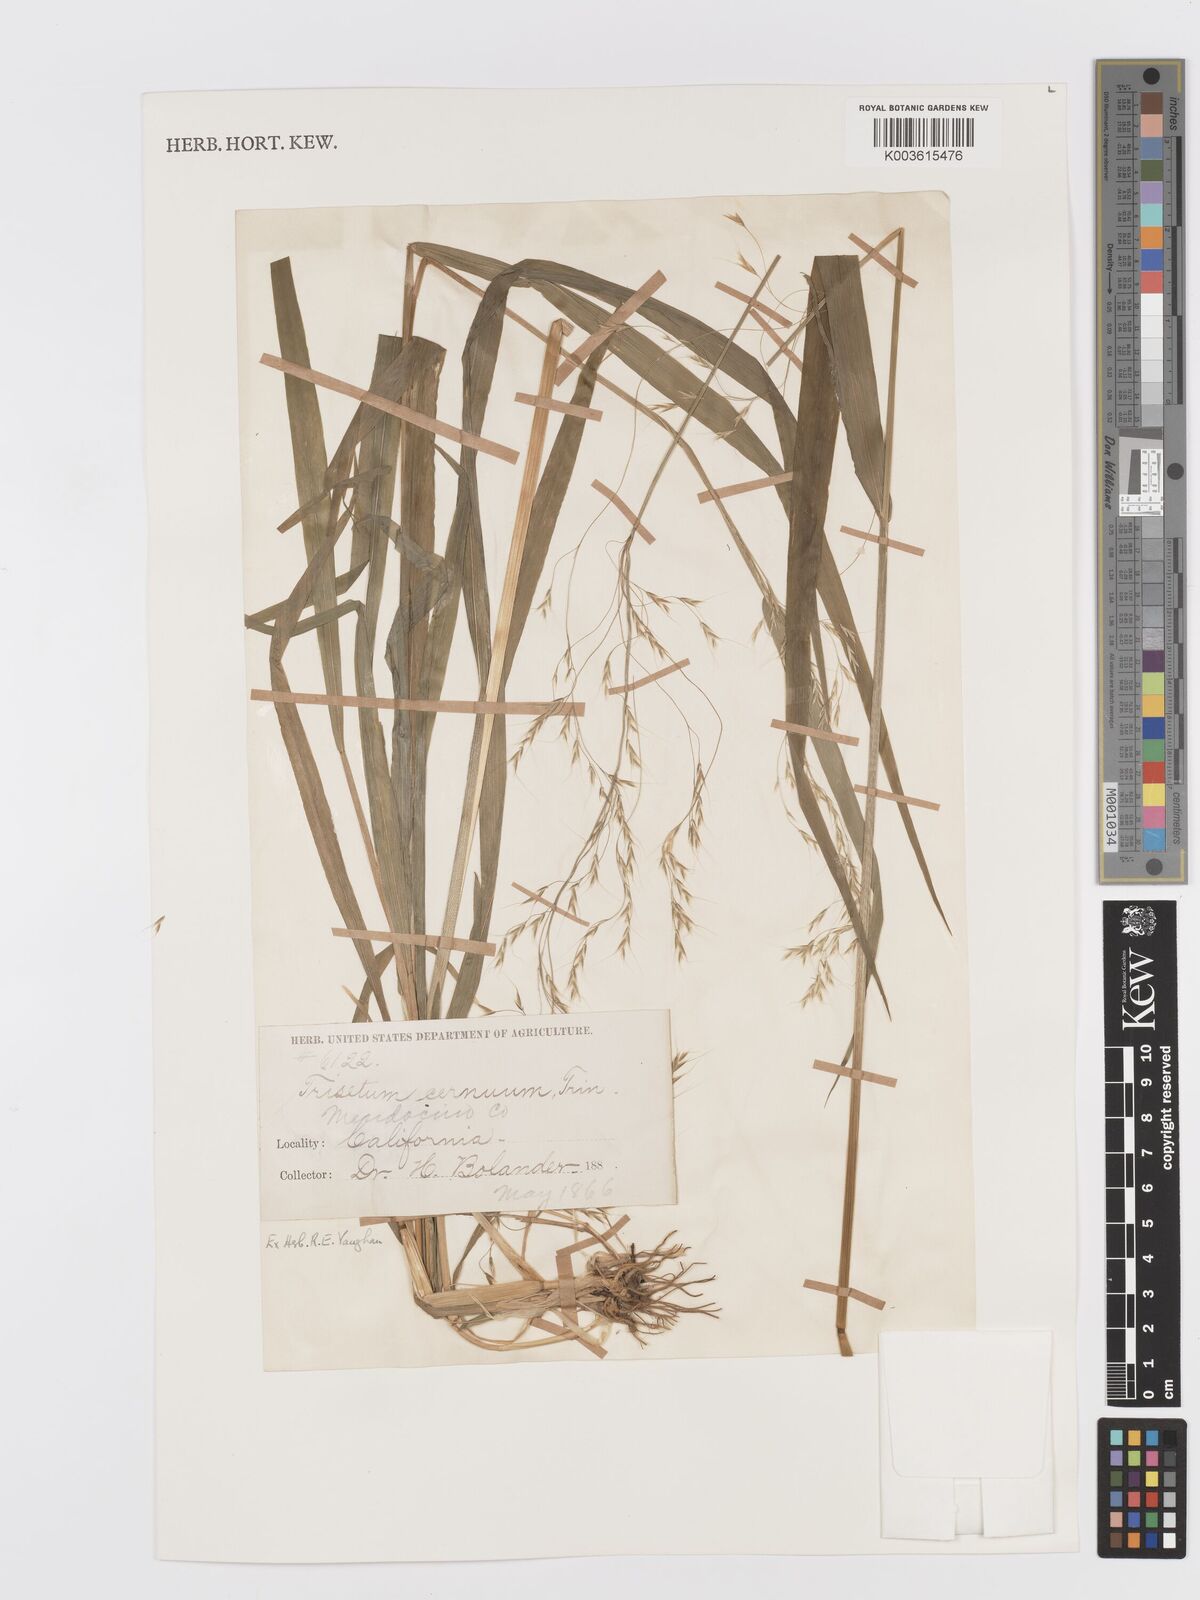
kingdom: Plantae
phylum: Tracheophyta
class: Liliopsida
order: Poales
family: Poaceae
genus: Graphephorum
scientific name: Graphephorum cernuum
